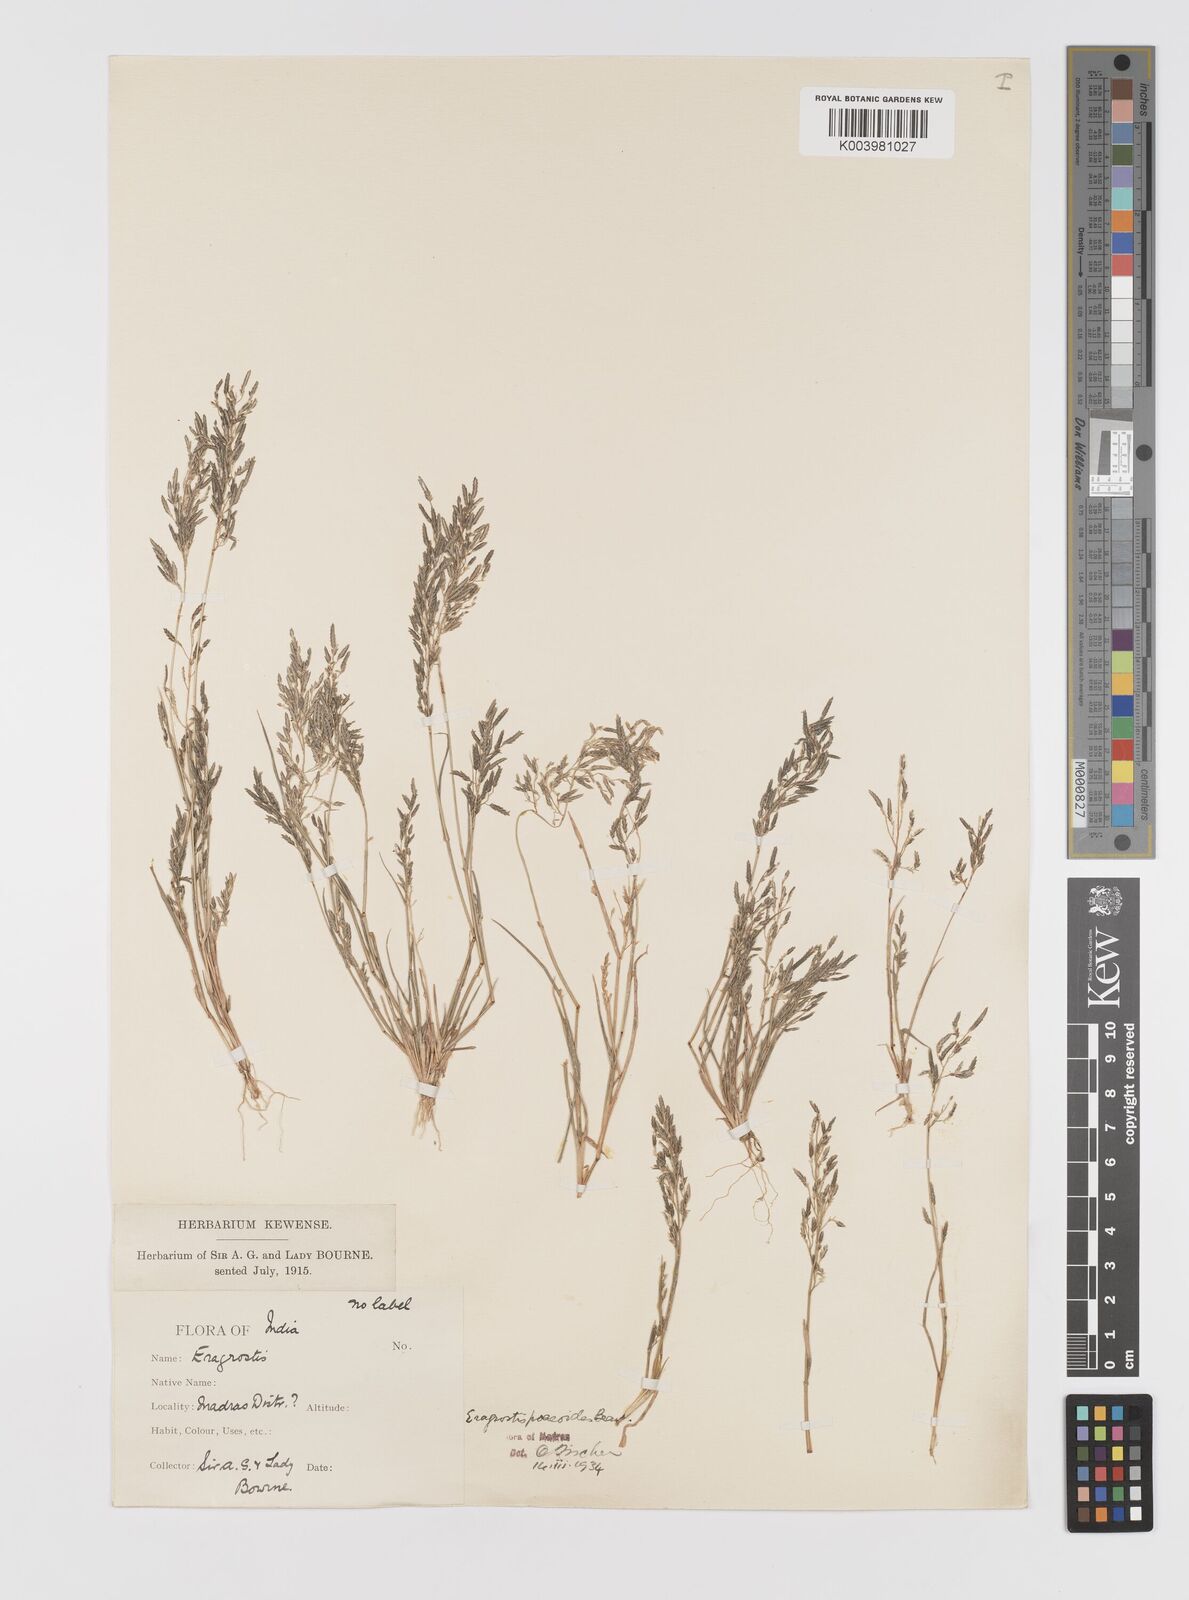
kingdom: Plantae
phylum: Tracheophyta
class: Liliopsida
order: Poales
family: Poaceae
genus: Eragrostis
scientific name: Eragrostis minor
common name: Small love-grass
